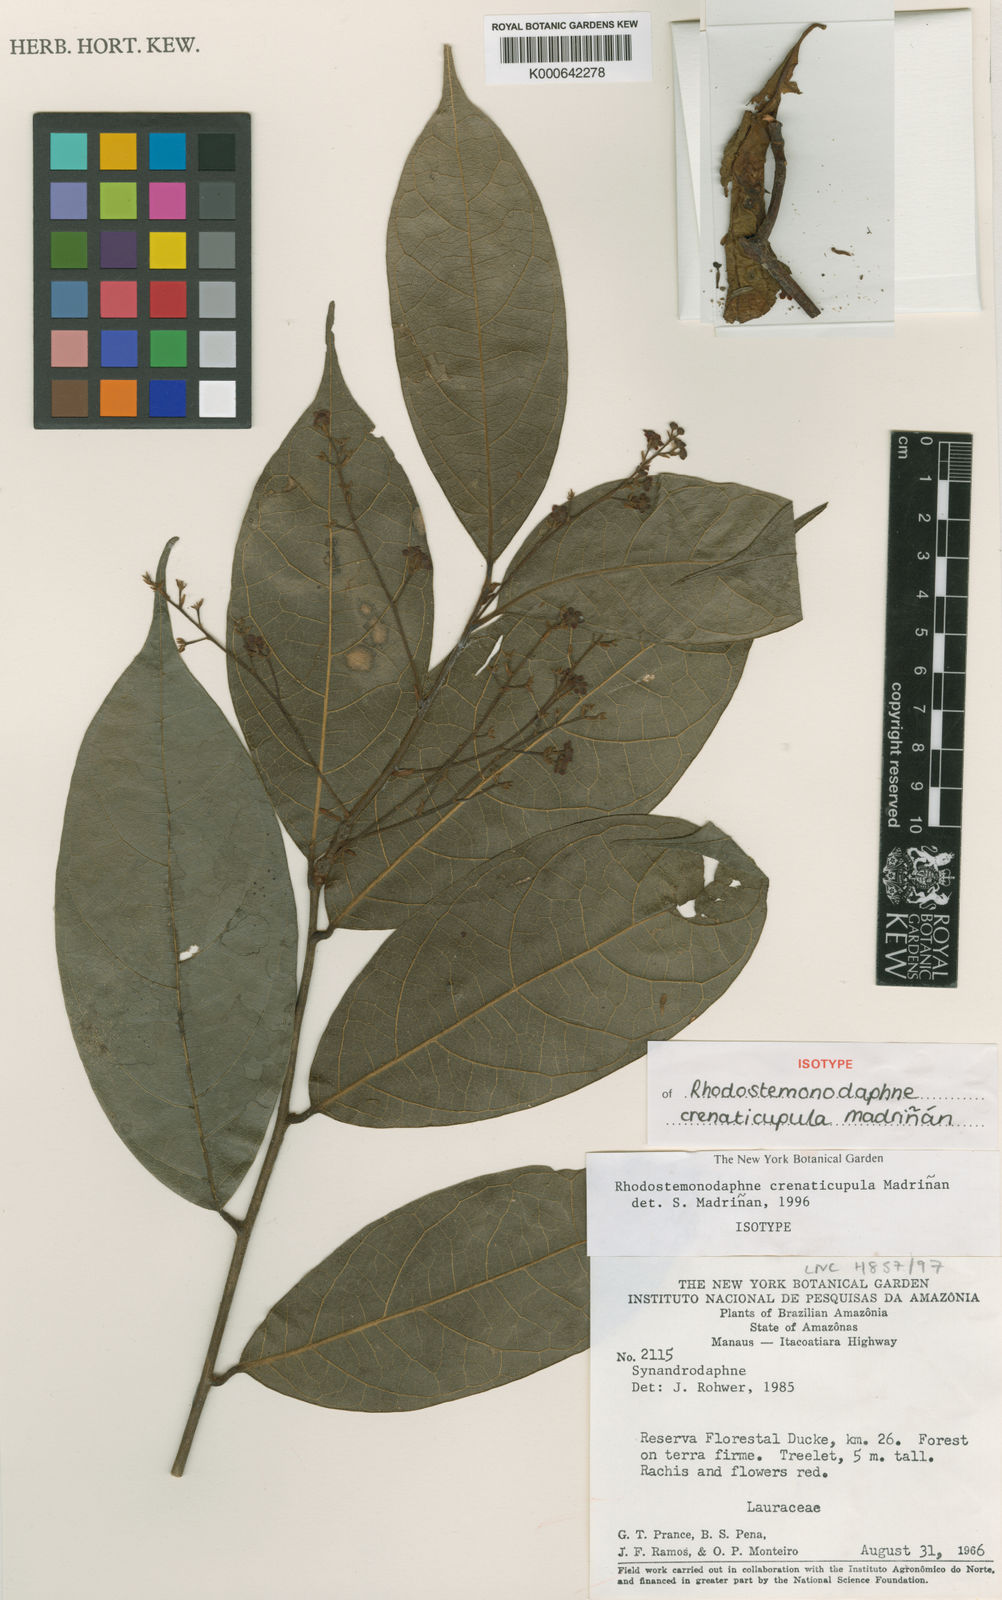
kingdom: Plantae
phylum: Tracheophyta
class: Magnoliopsida
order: Laurales
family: Lauraceae
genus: Rhodostemonodaphne
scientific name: Rhodostemonodaphne
